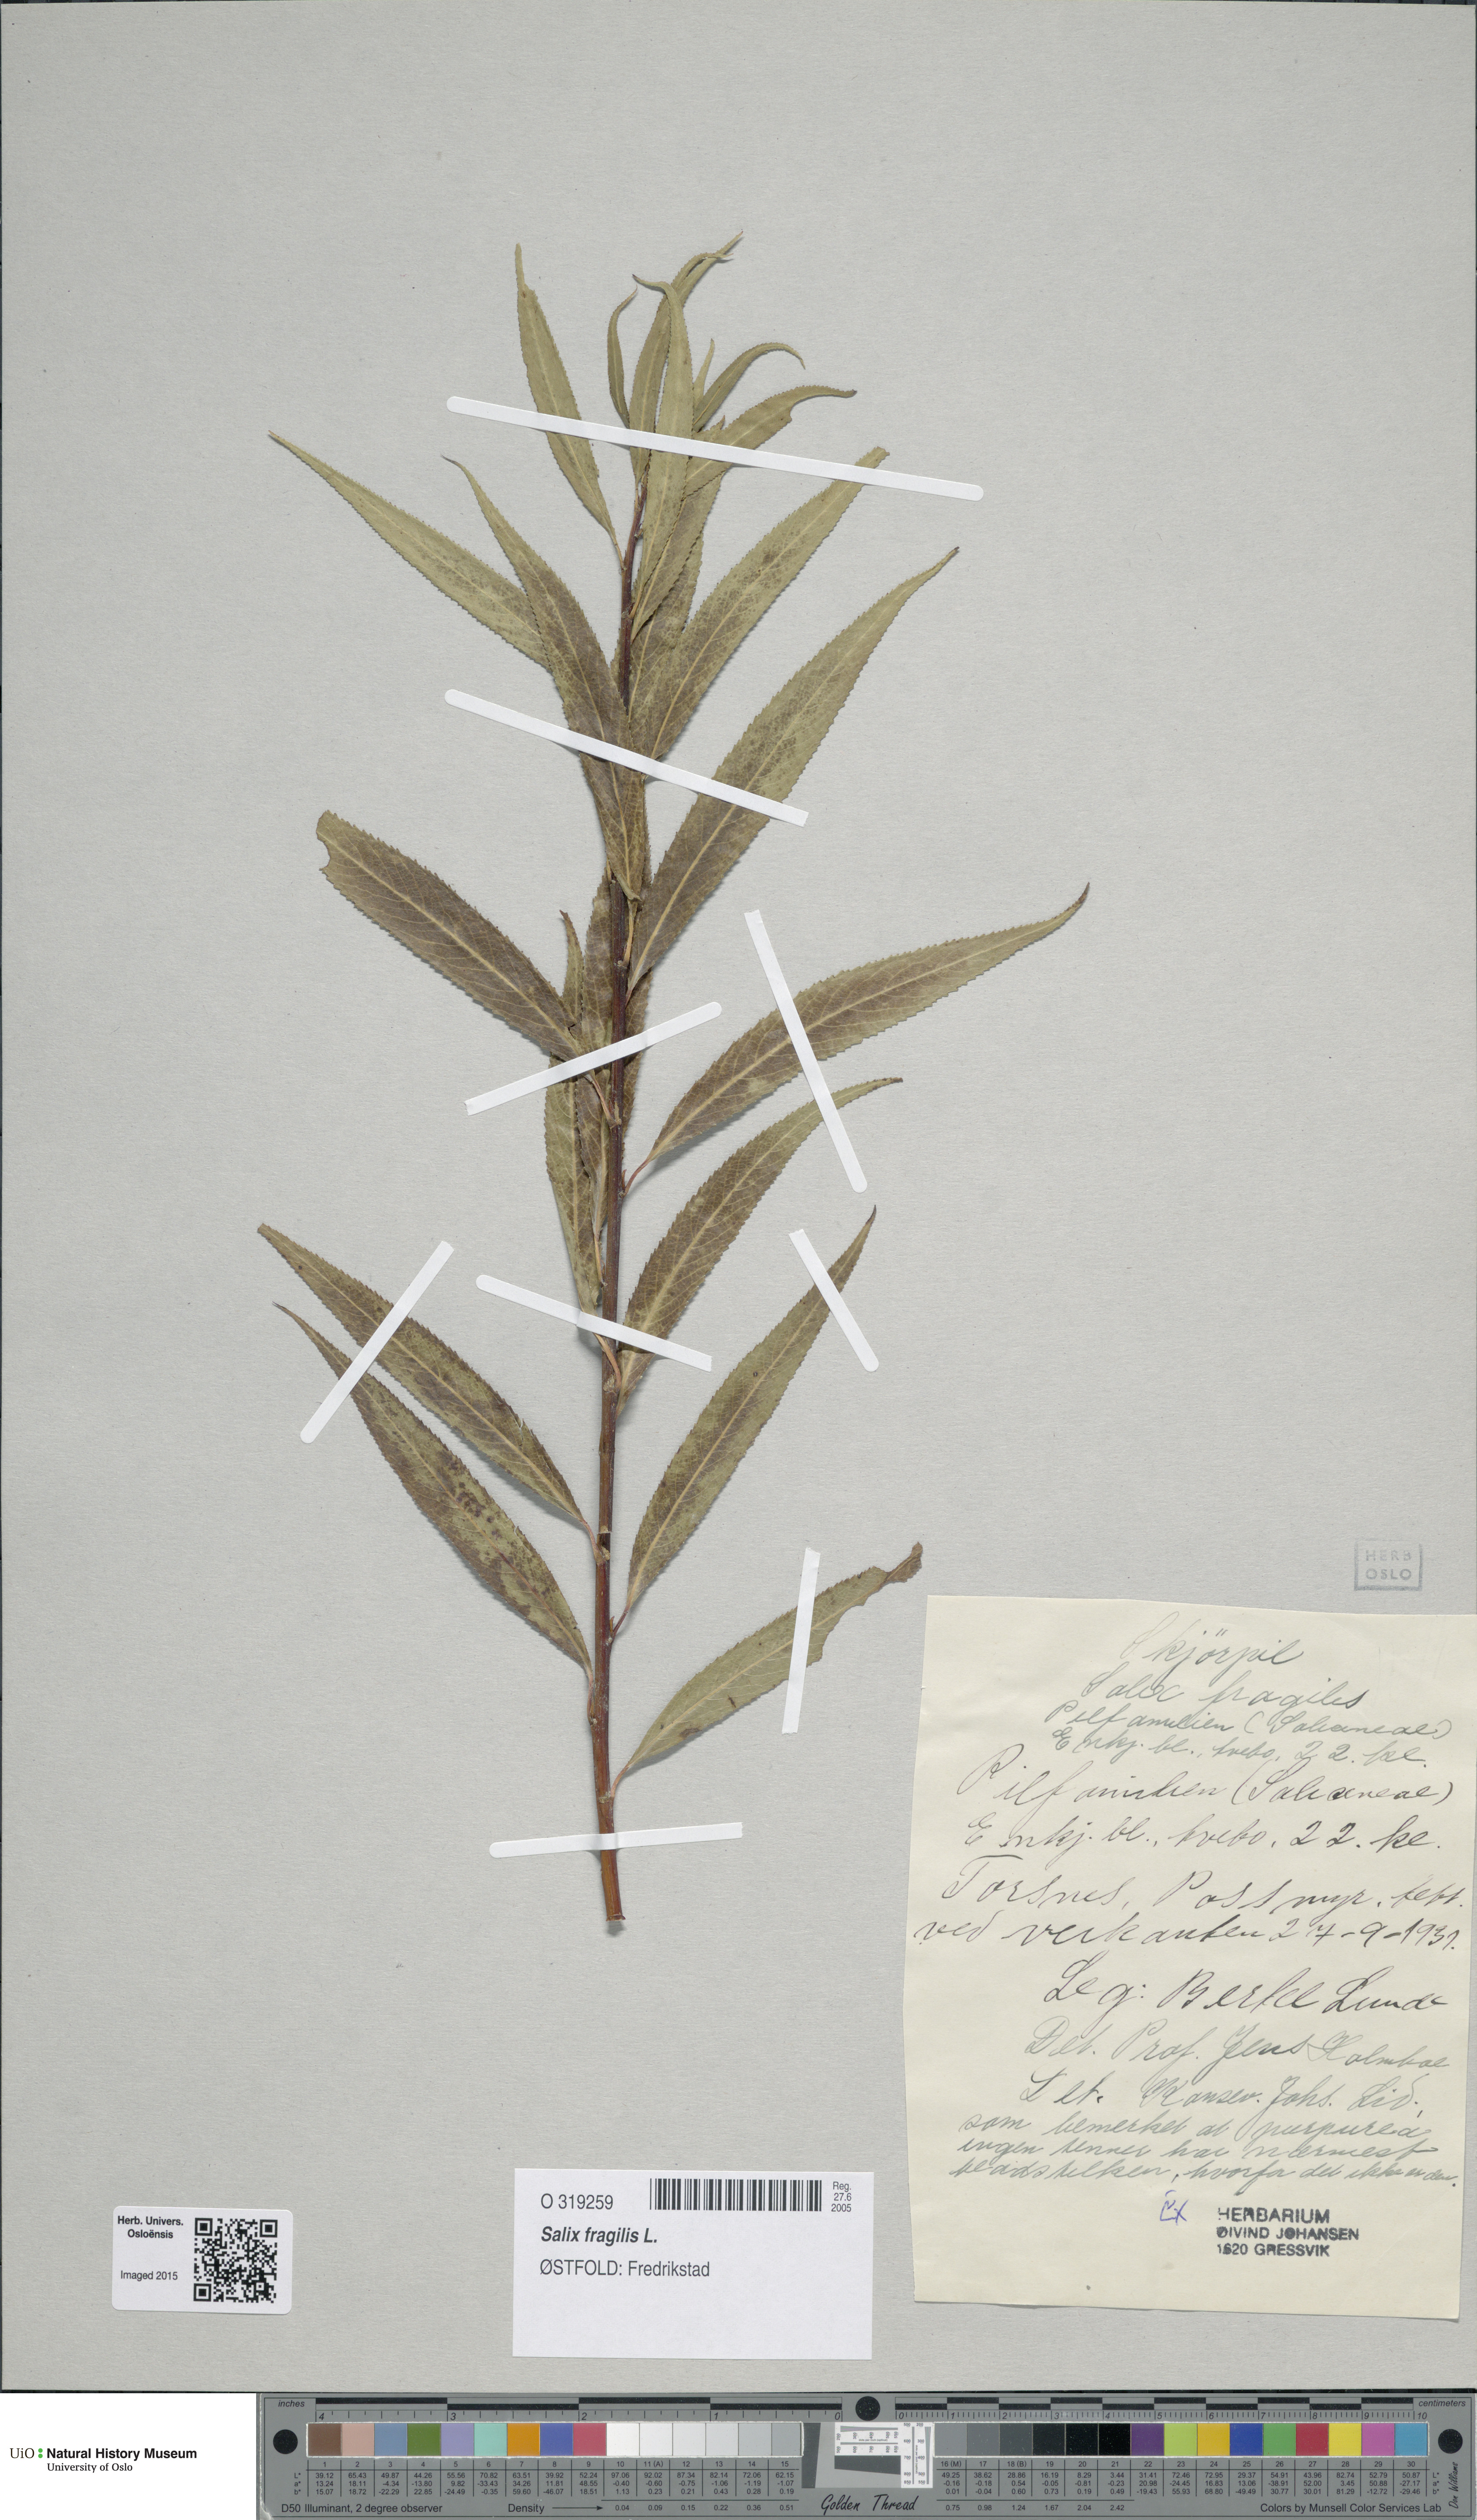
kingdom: Plantae
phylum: Tracheophyta
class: Magnoliopsida
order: Malpighiales
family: Salicaceae
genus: Salix
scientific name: Salix fragilis
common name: Crack willow
